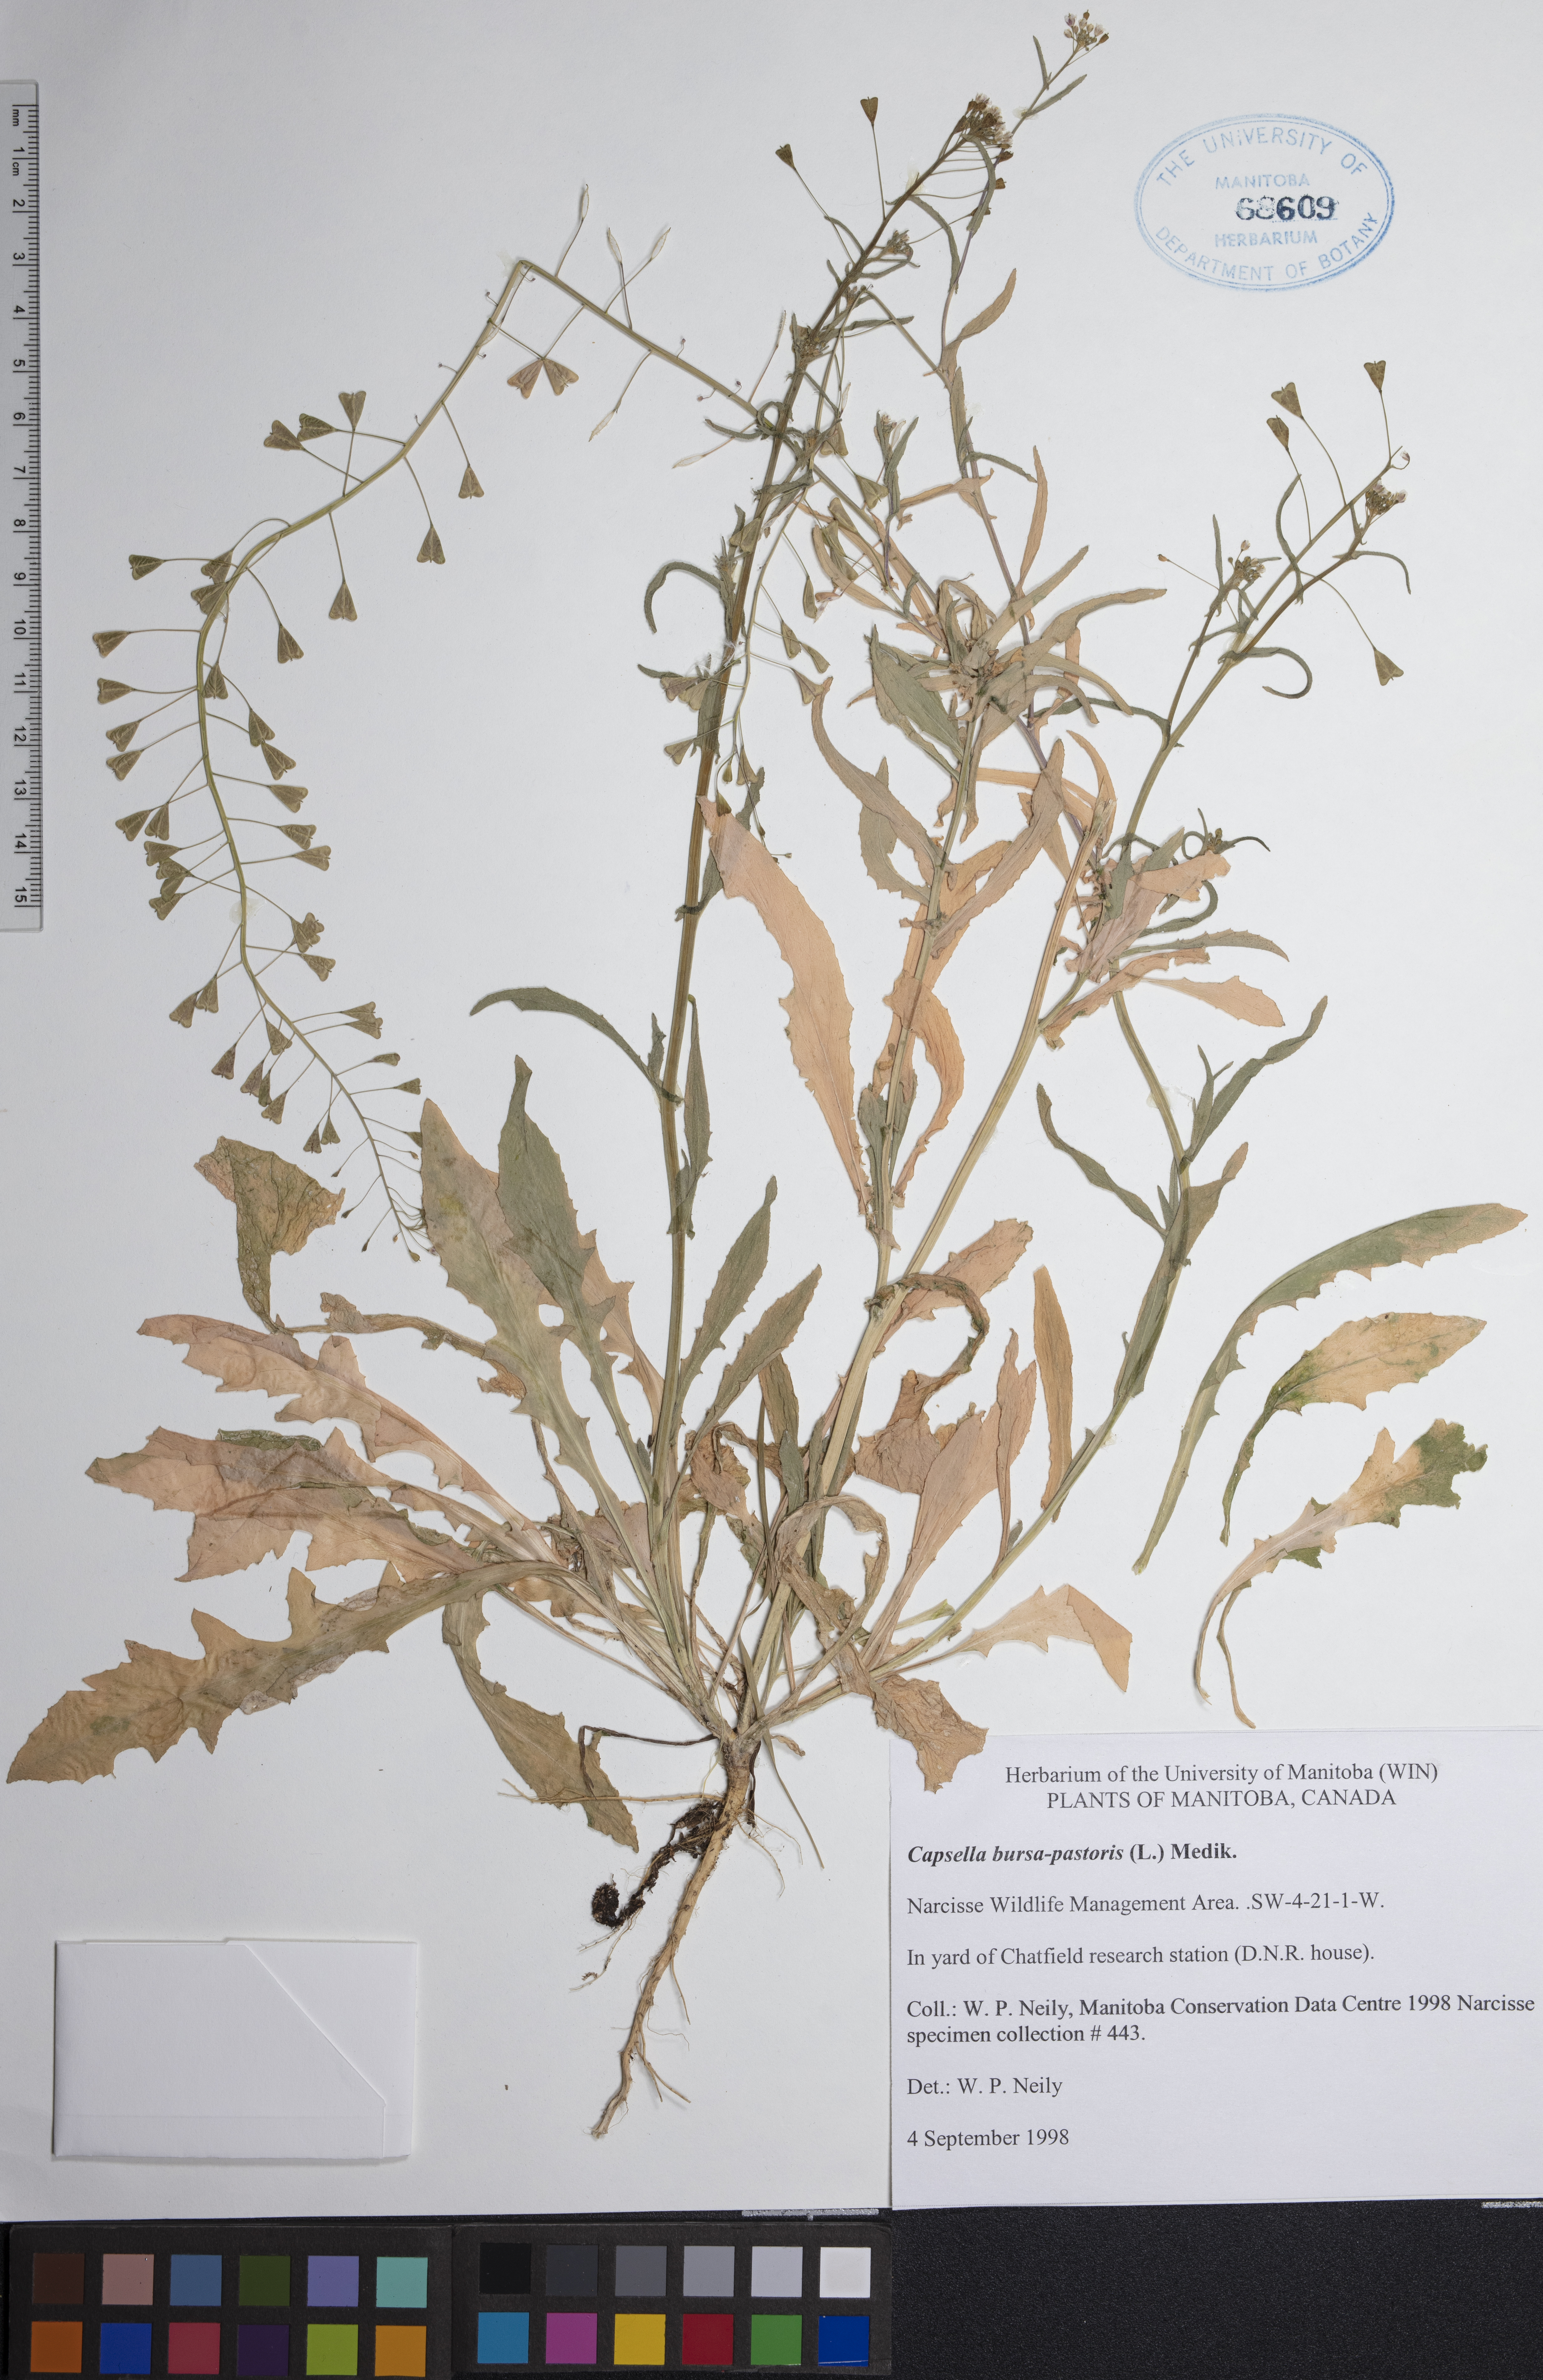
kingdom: Plantae
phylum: Tracheophyta
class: Magnoliopsida
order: Brassicales
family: Brassicaceae
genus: Capsella
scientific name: Capsella bursa-pastoris
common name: Shepherd's purse
